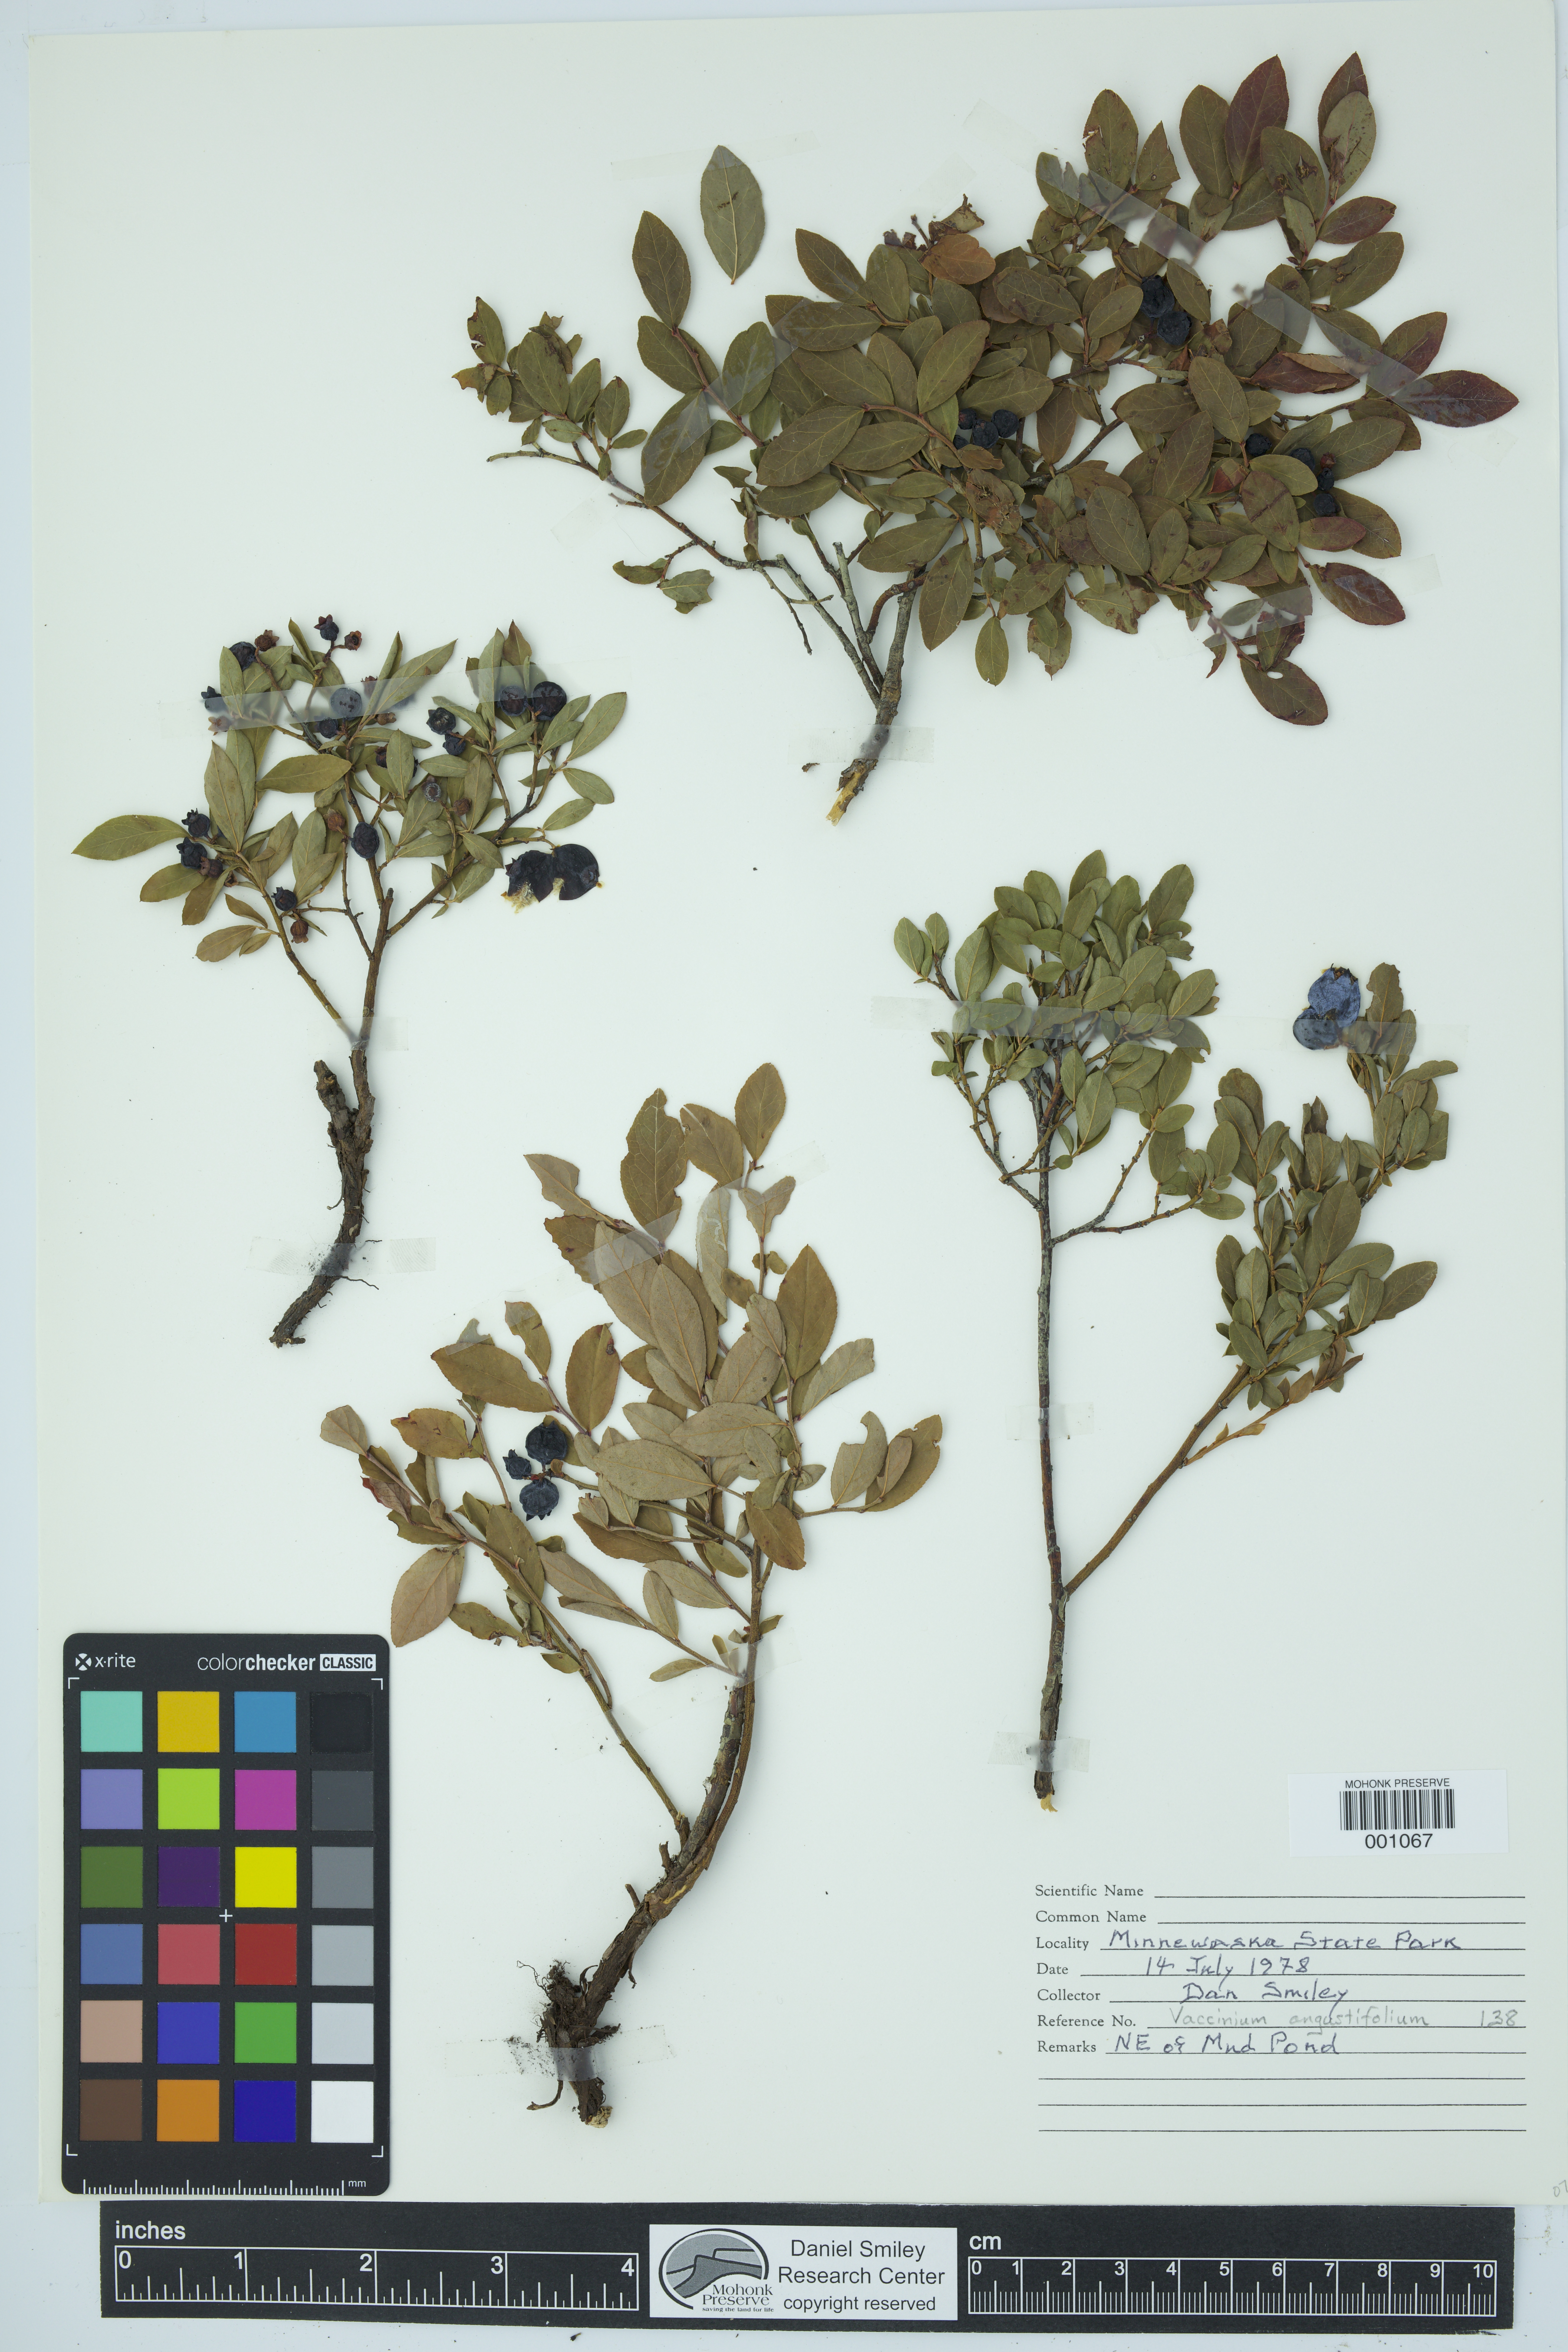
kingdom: Plantae
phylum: Tracheophyta
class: Magnoliopsida
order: Ericales
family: Ericaceae
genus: Vaccinium
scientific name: Vaccinium angustifolium
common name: Early lowbush blueberry
